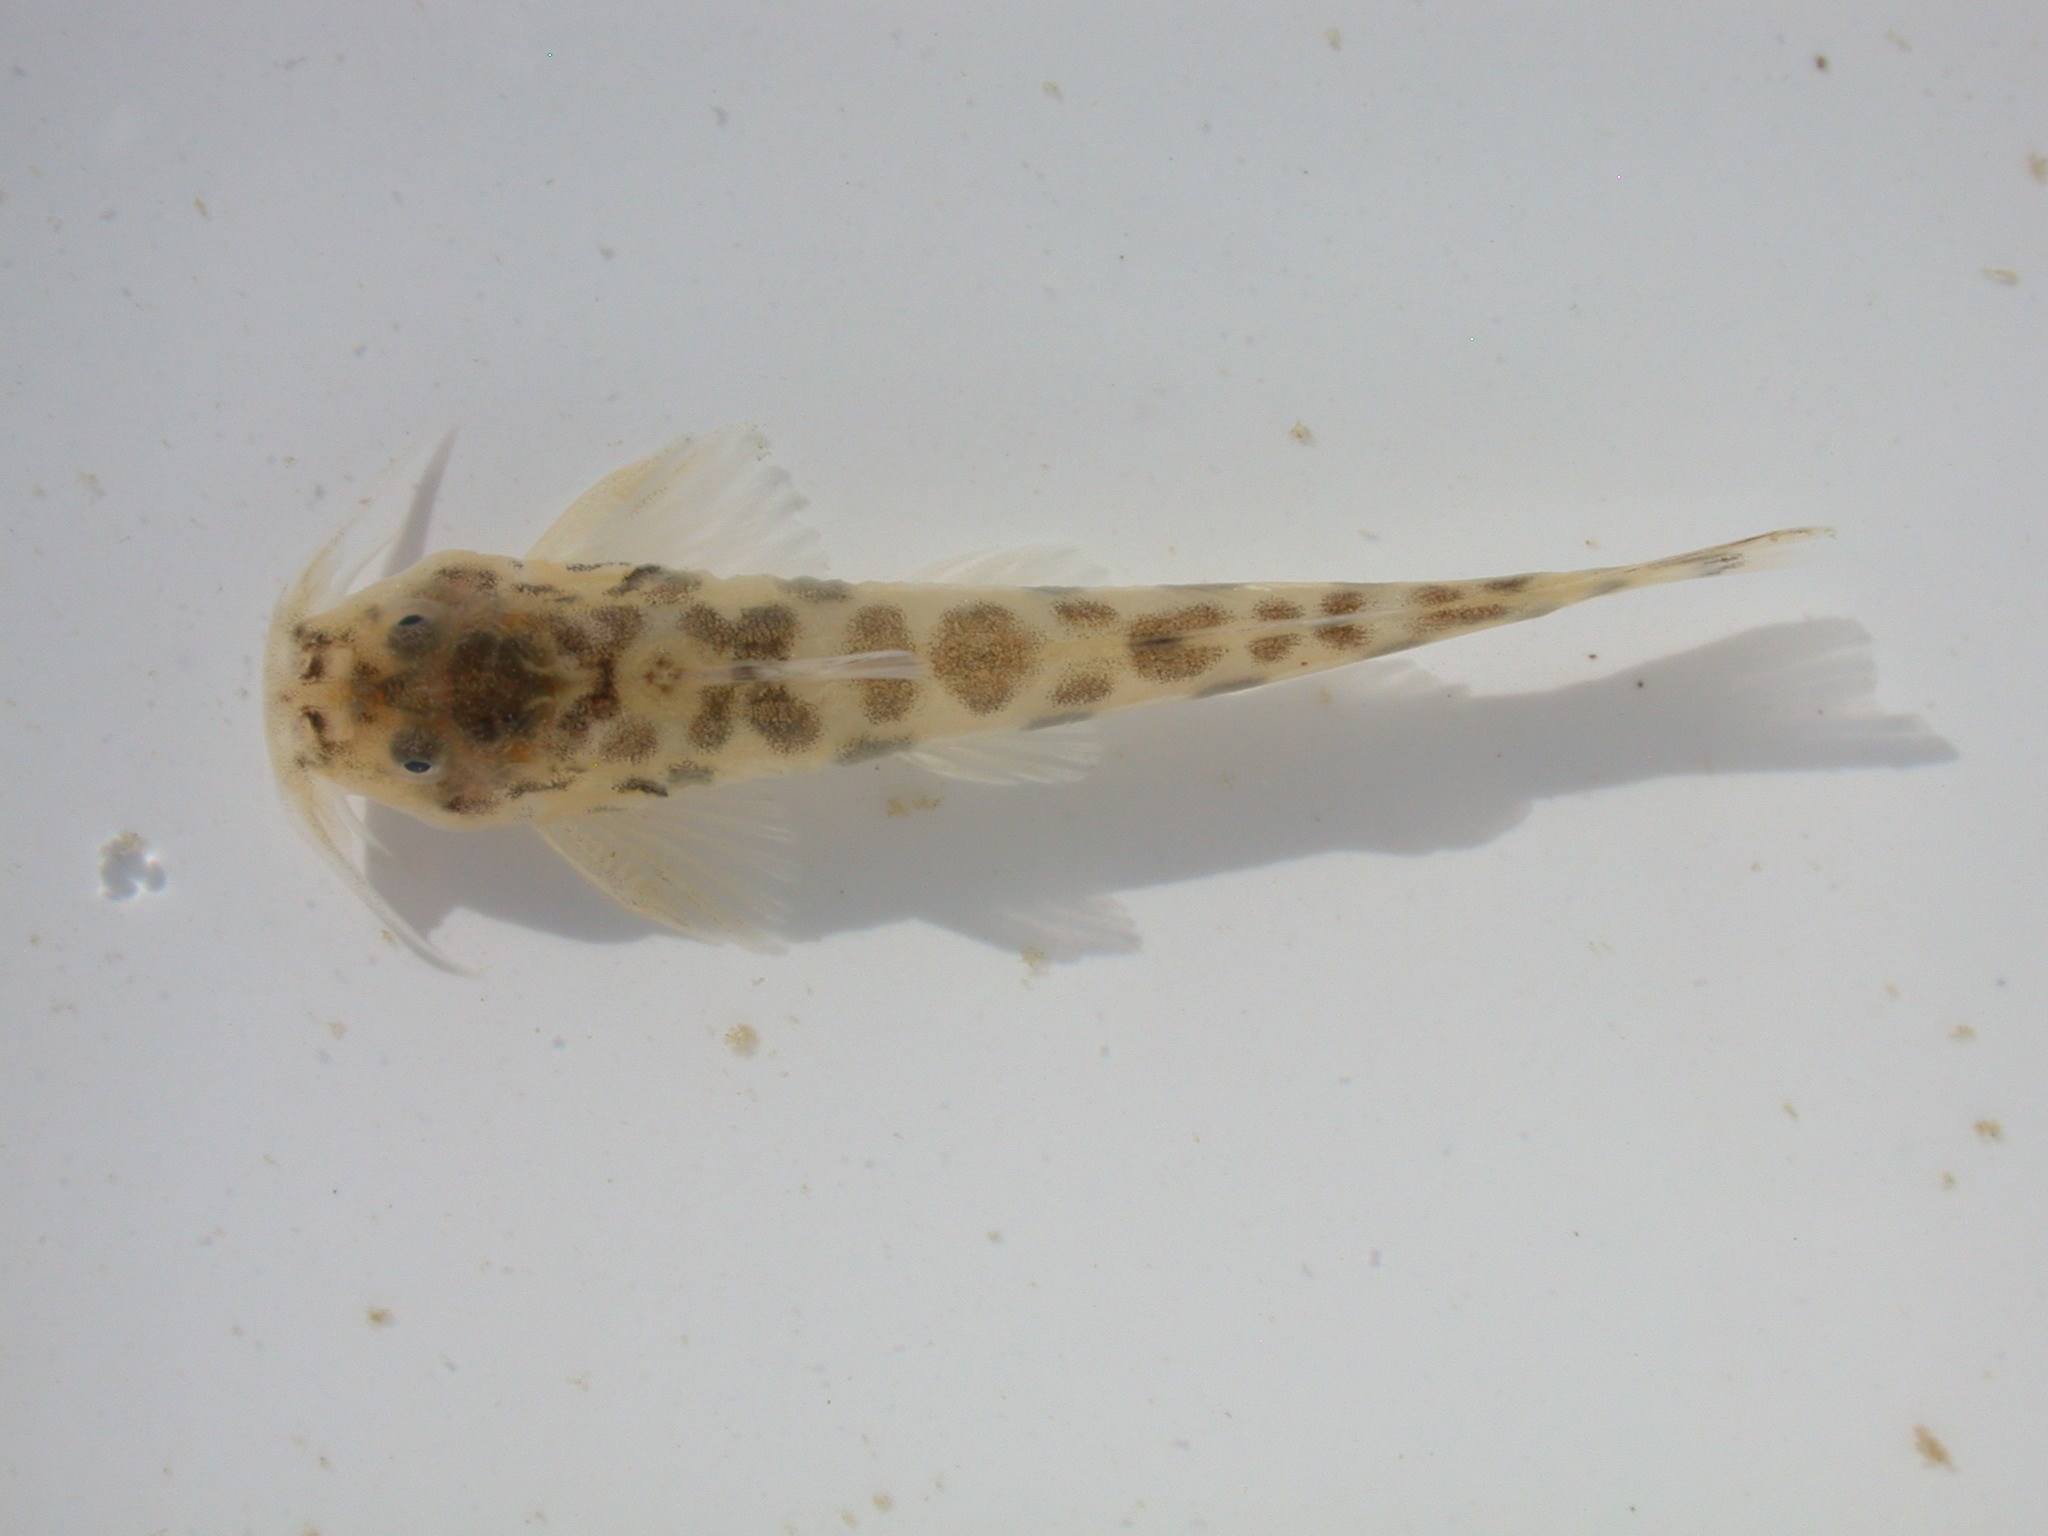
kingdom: Animalia
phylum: Chordata
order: Siluriformes
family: Amphiliidae
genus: Zaireichthys
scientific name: Zaireichthys monomotapa
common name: Eastern sand catlet
